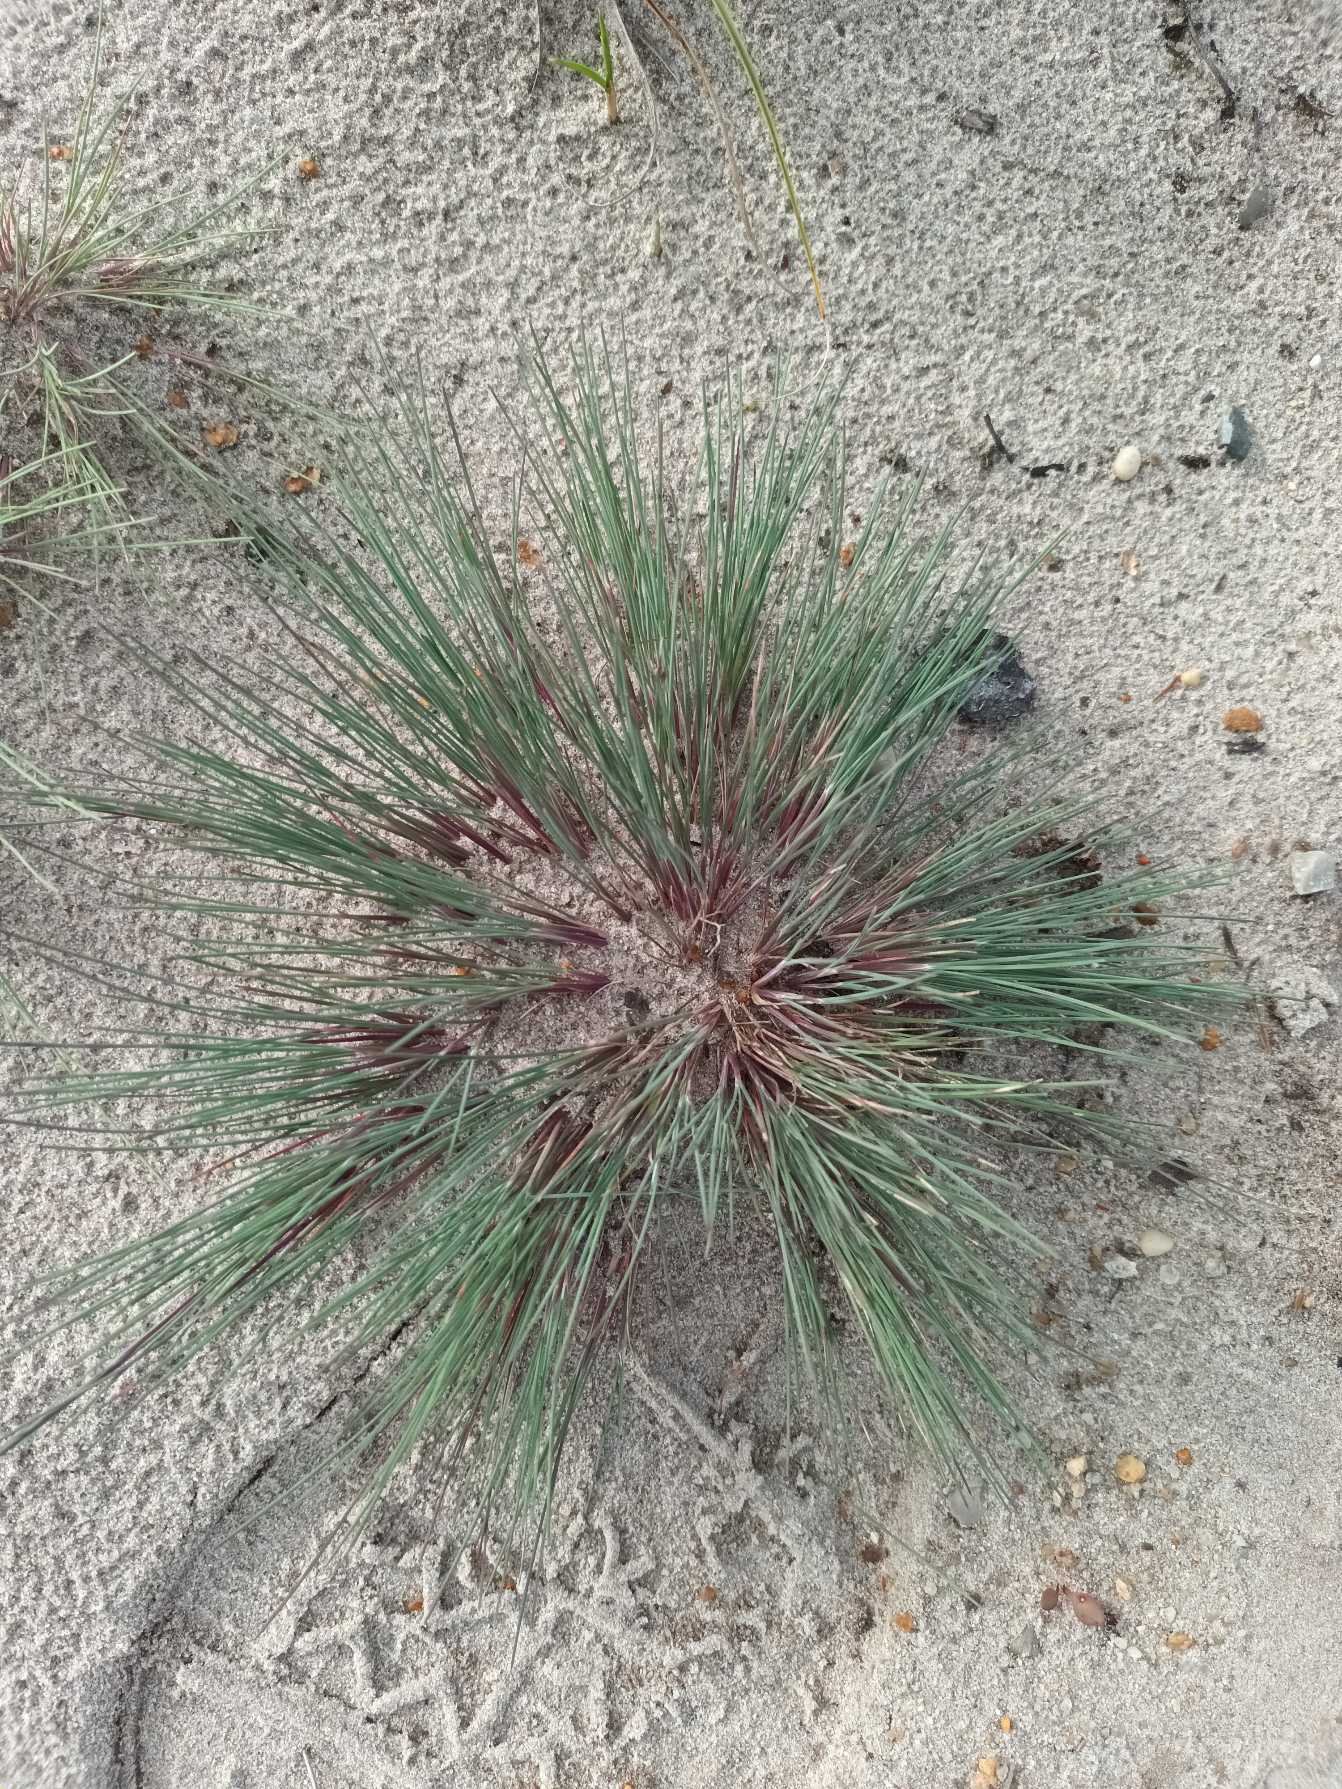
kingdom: Plantae
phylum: Tracheophyta
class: Liliopsida
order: Poales
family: Poaceae
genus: Corynephorus
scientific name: Corynephorus canescens
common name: Sandskæg
